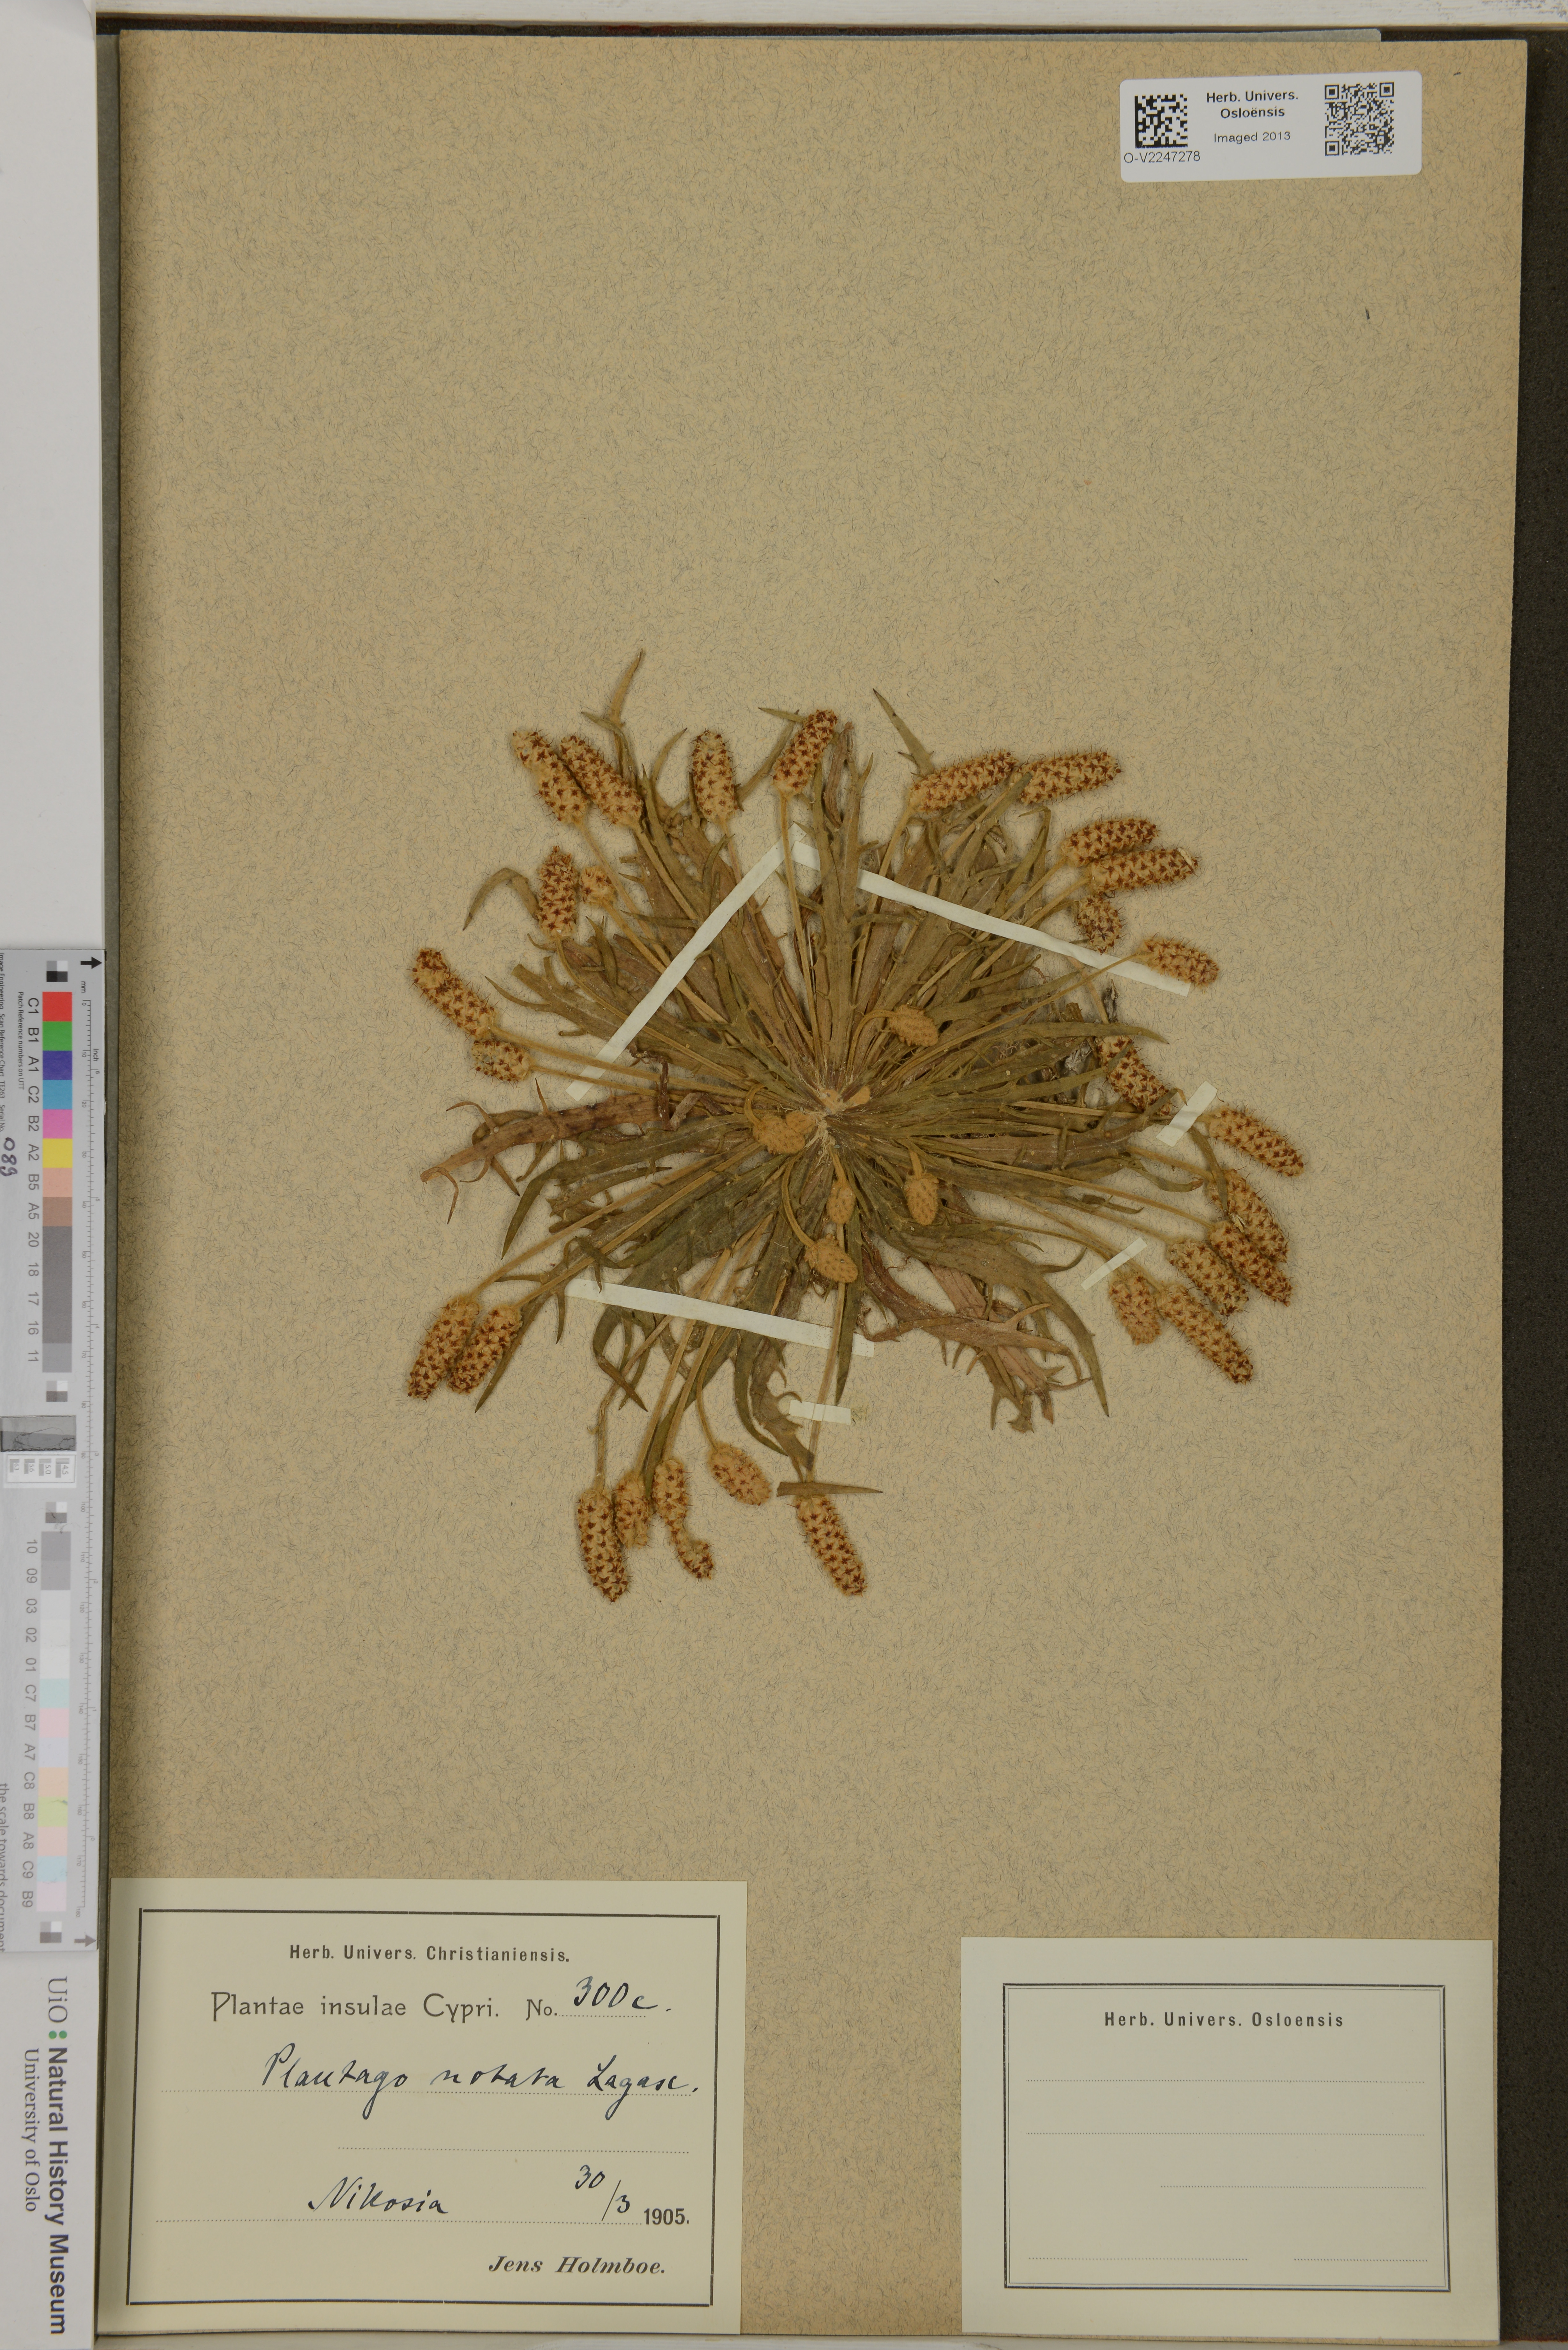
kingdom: Plantae
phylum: Tracheophyta
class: Magnoliopsida
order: Lamiales
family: Plantaginaceae
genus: Plantago
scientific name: Plantago notata
